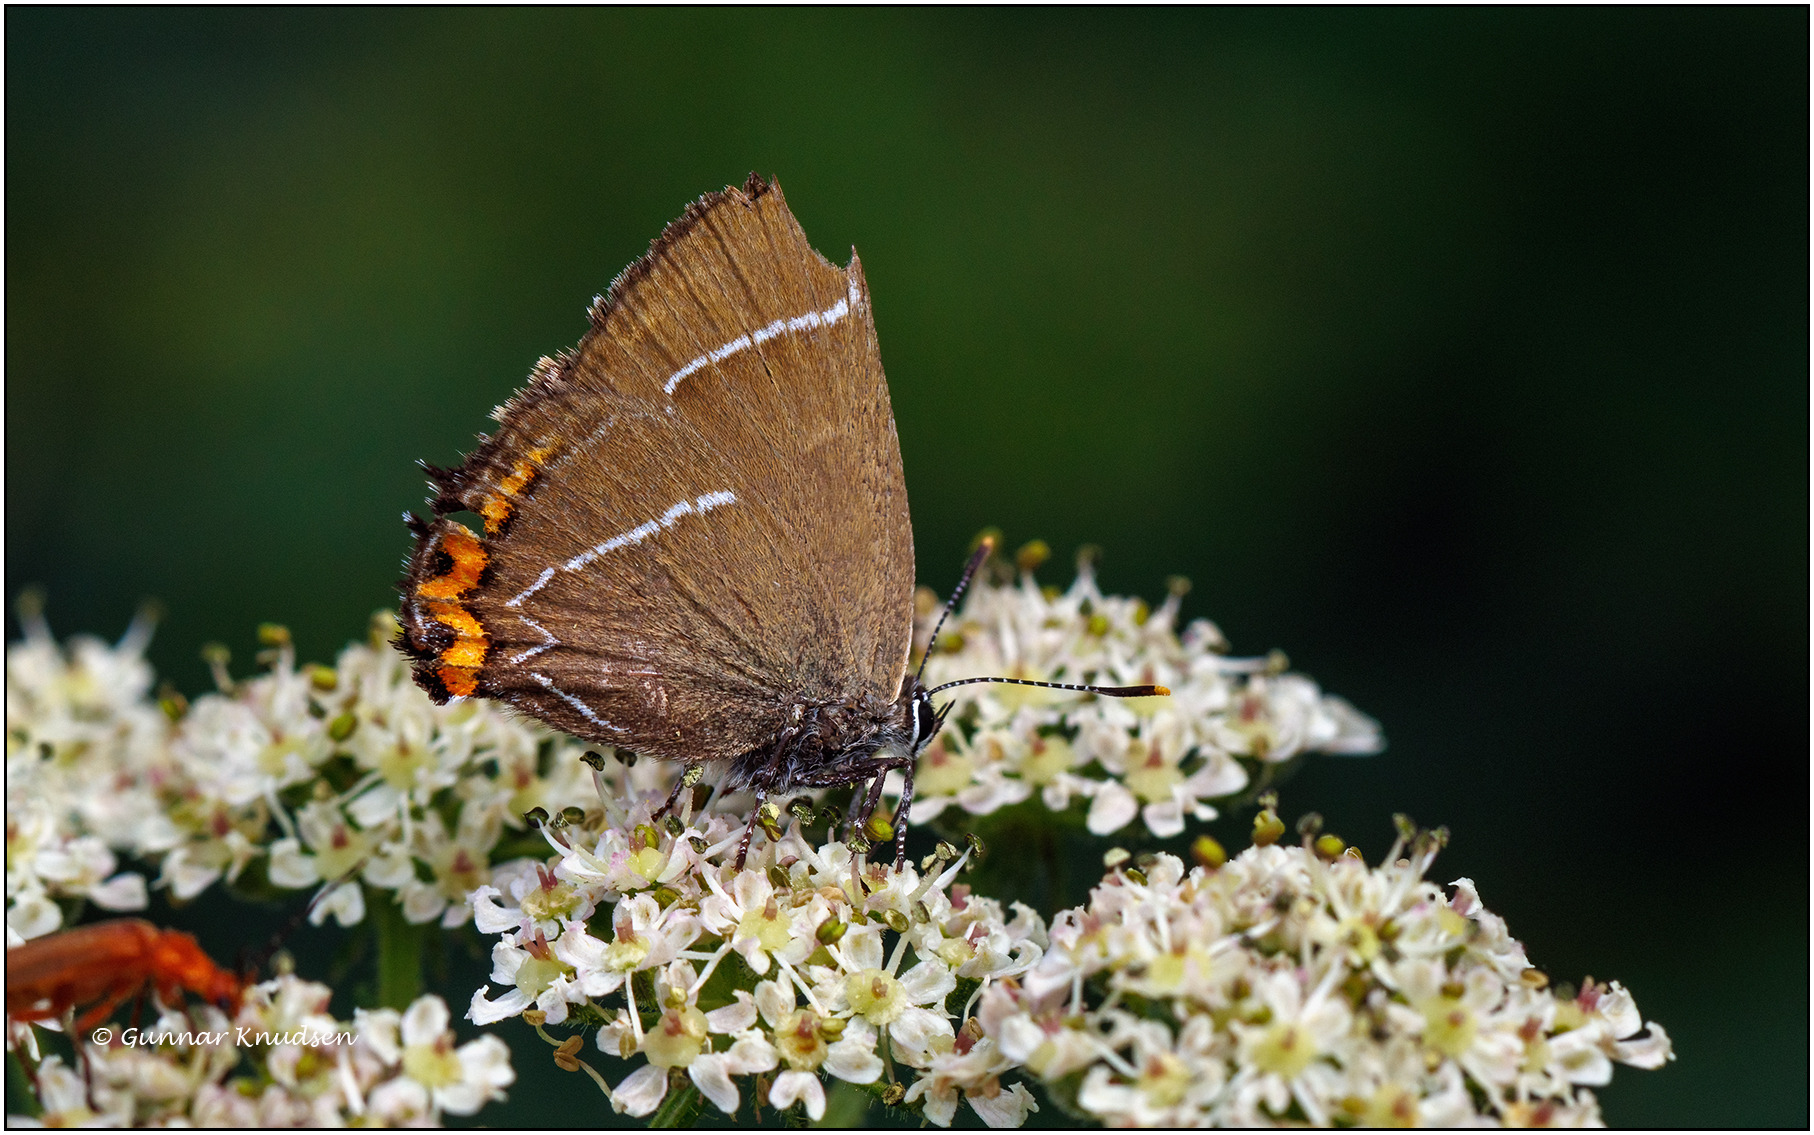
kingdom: Animalia
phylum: Arthropoda
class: Insecta
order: Lepidoptera
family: Lycaenidae
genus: Satyrium
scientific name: Satyrium w-album
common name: Det hvide W
